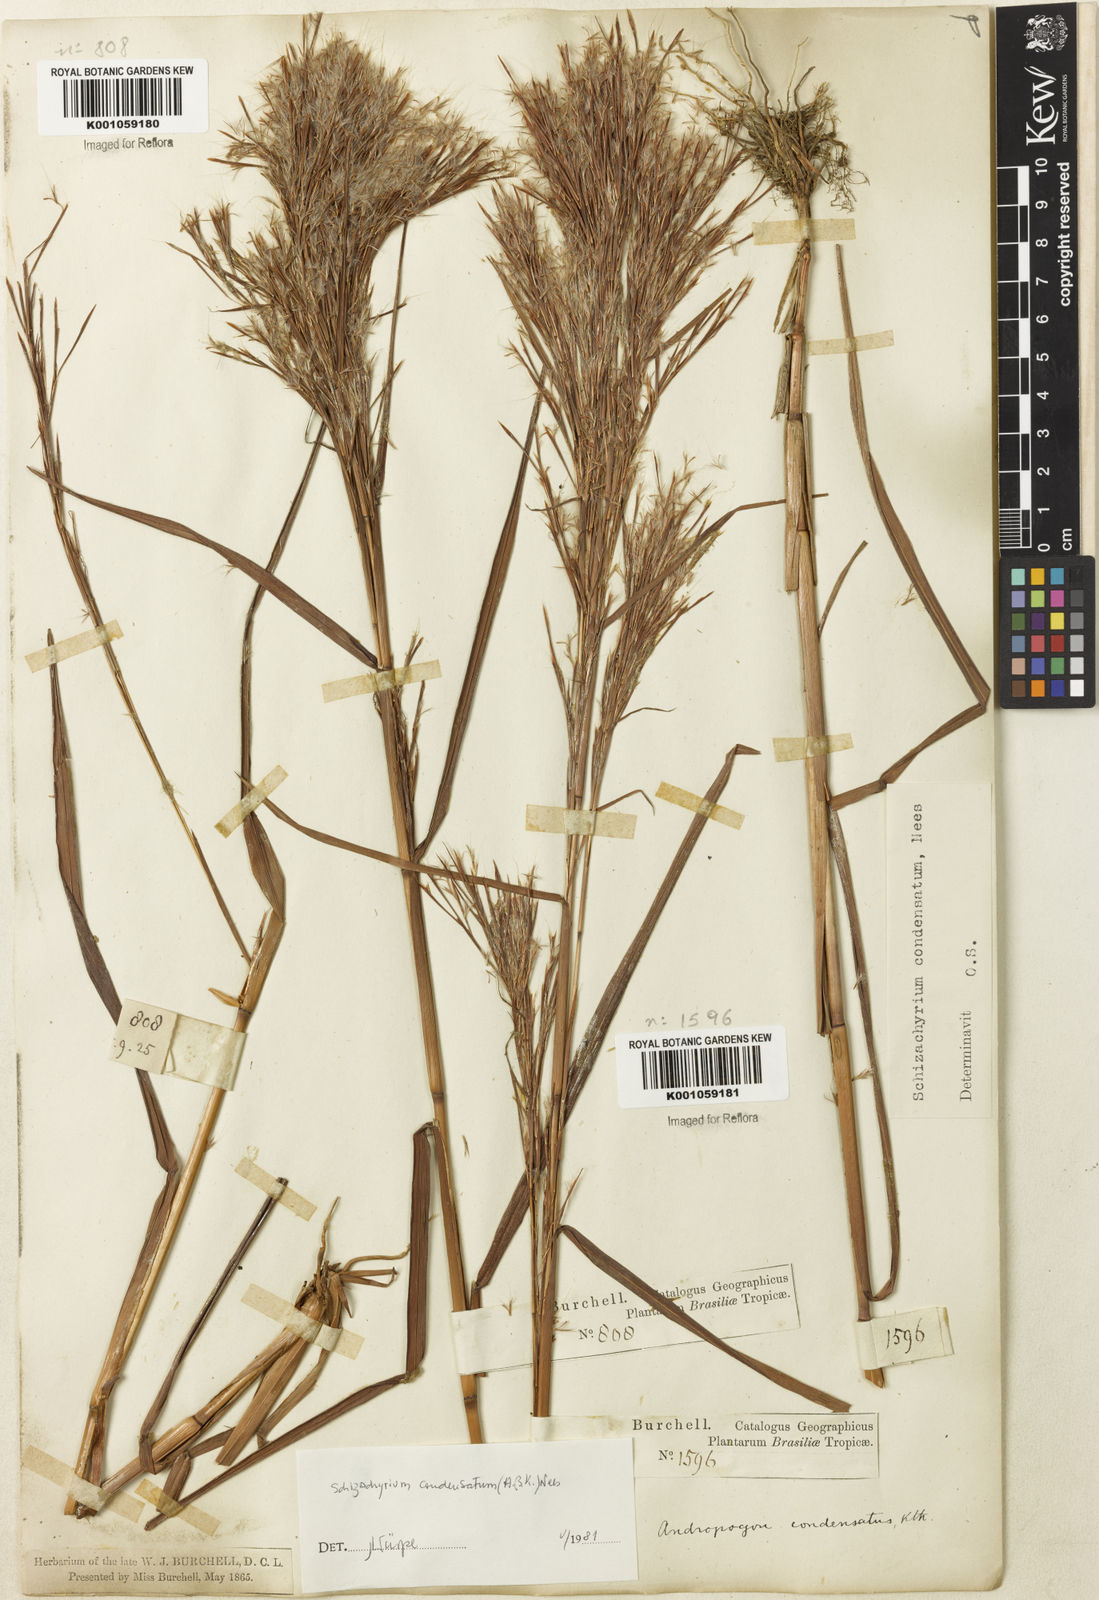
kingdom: Plantae
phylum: Tracheophyta
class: Liliopsida
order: Poales
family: Poaceae
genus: Schizachyrium
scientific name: Schizachyrium condensatum
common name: Bush beardgrass
